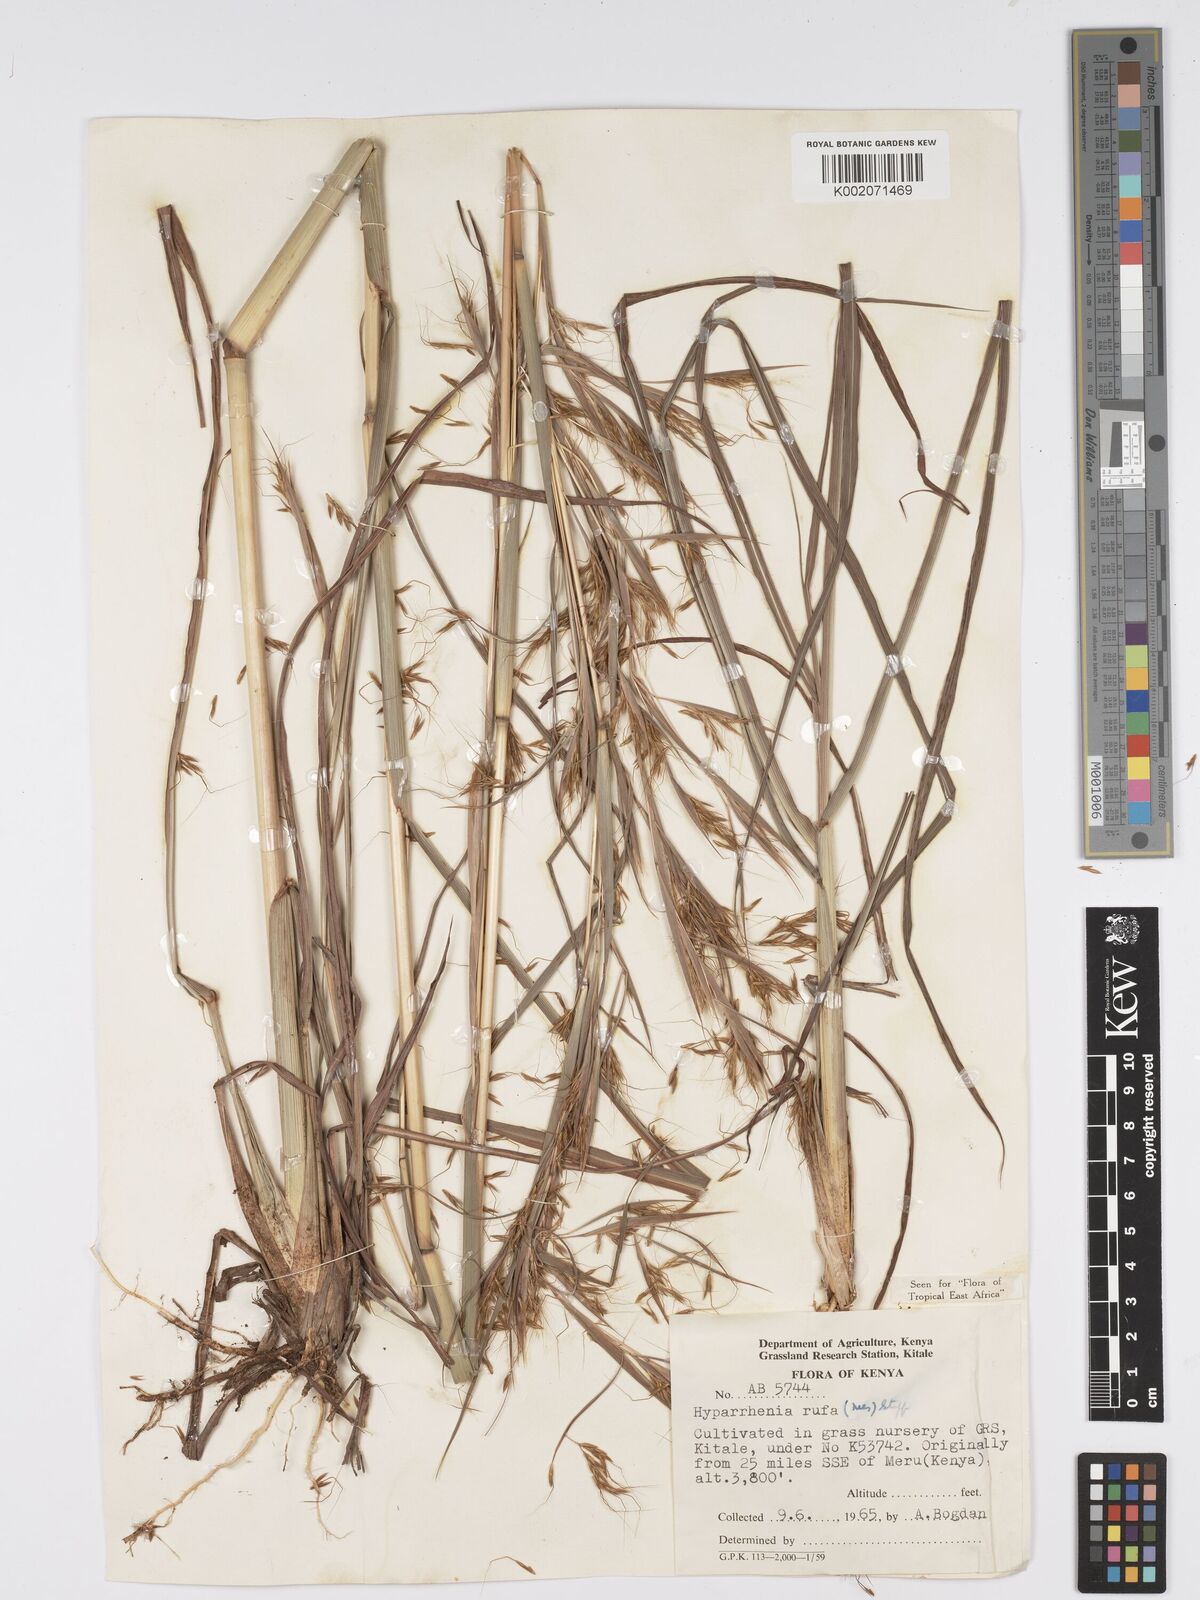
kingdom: Plantae
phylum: Tracheophyta
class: Liliopsida
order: Poales
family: Poaceae
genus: Hyparrhenia
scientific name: Hyparrhenia rufa
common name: Jaraguagrass
